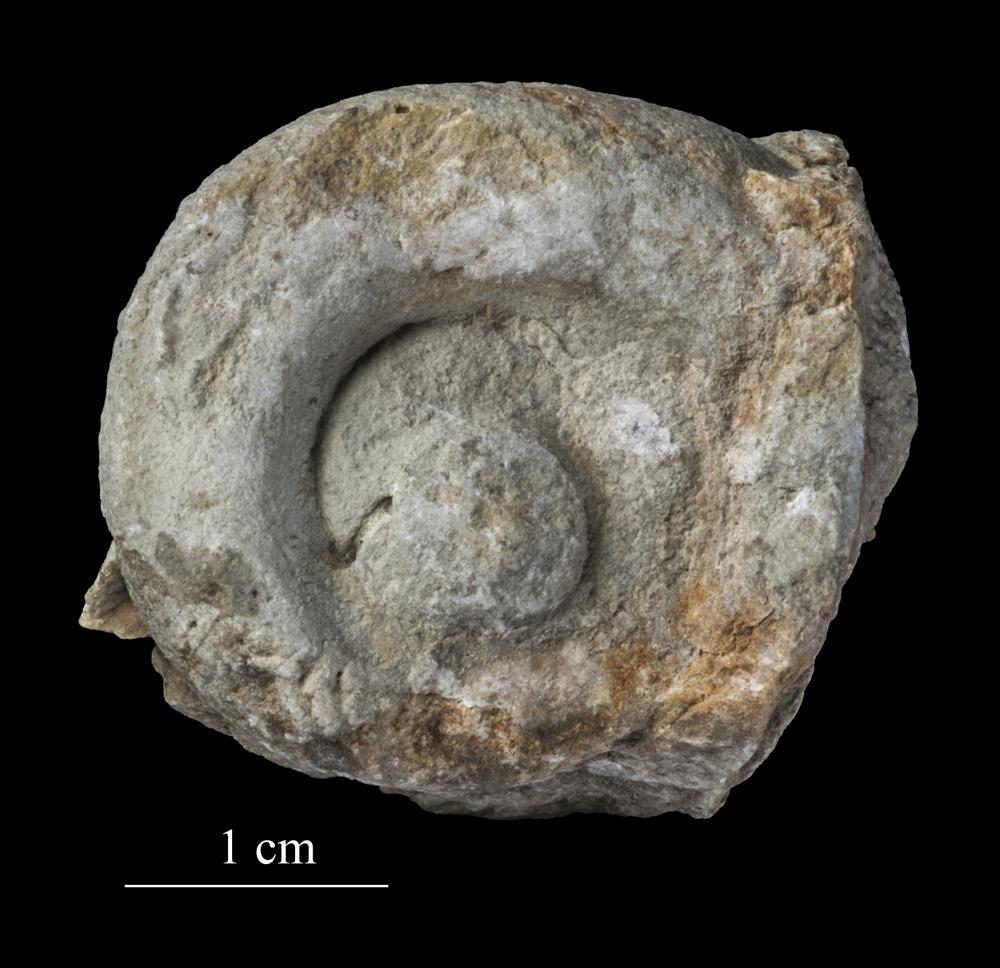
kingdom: Animalia
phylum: Mollusca
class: Gastropoda
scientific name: Gastropoda
